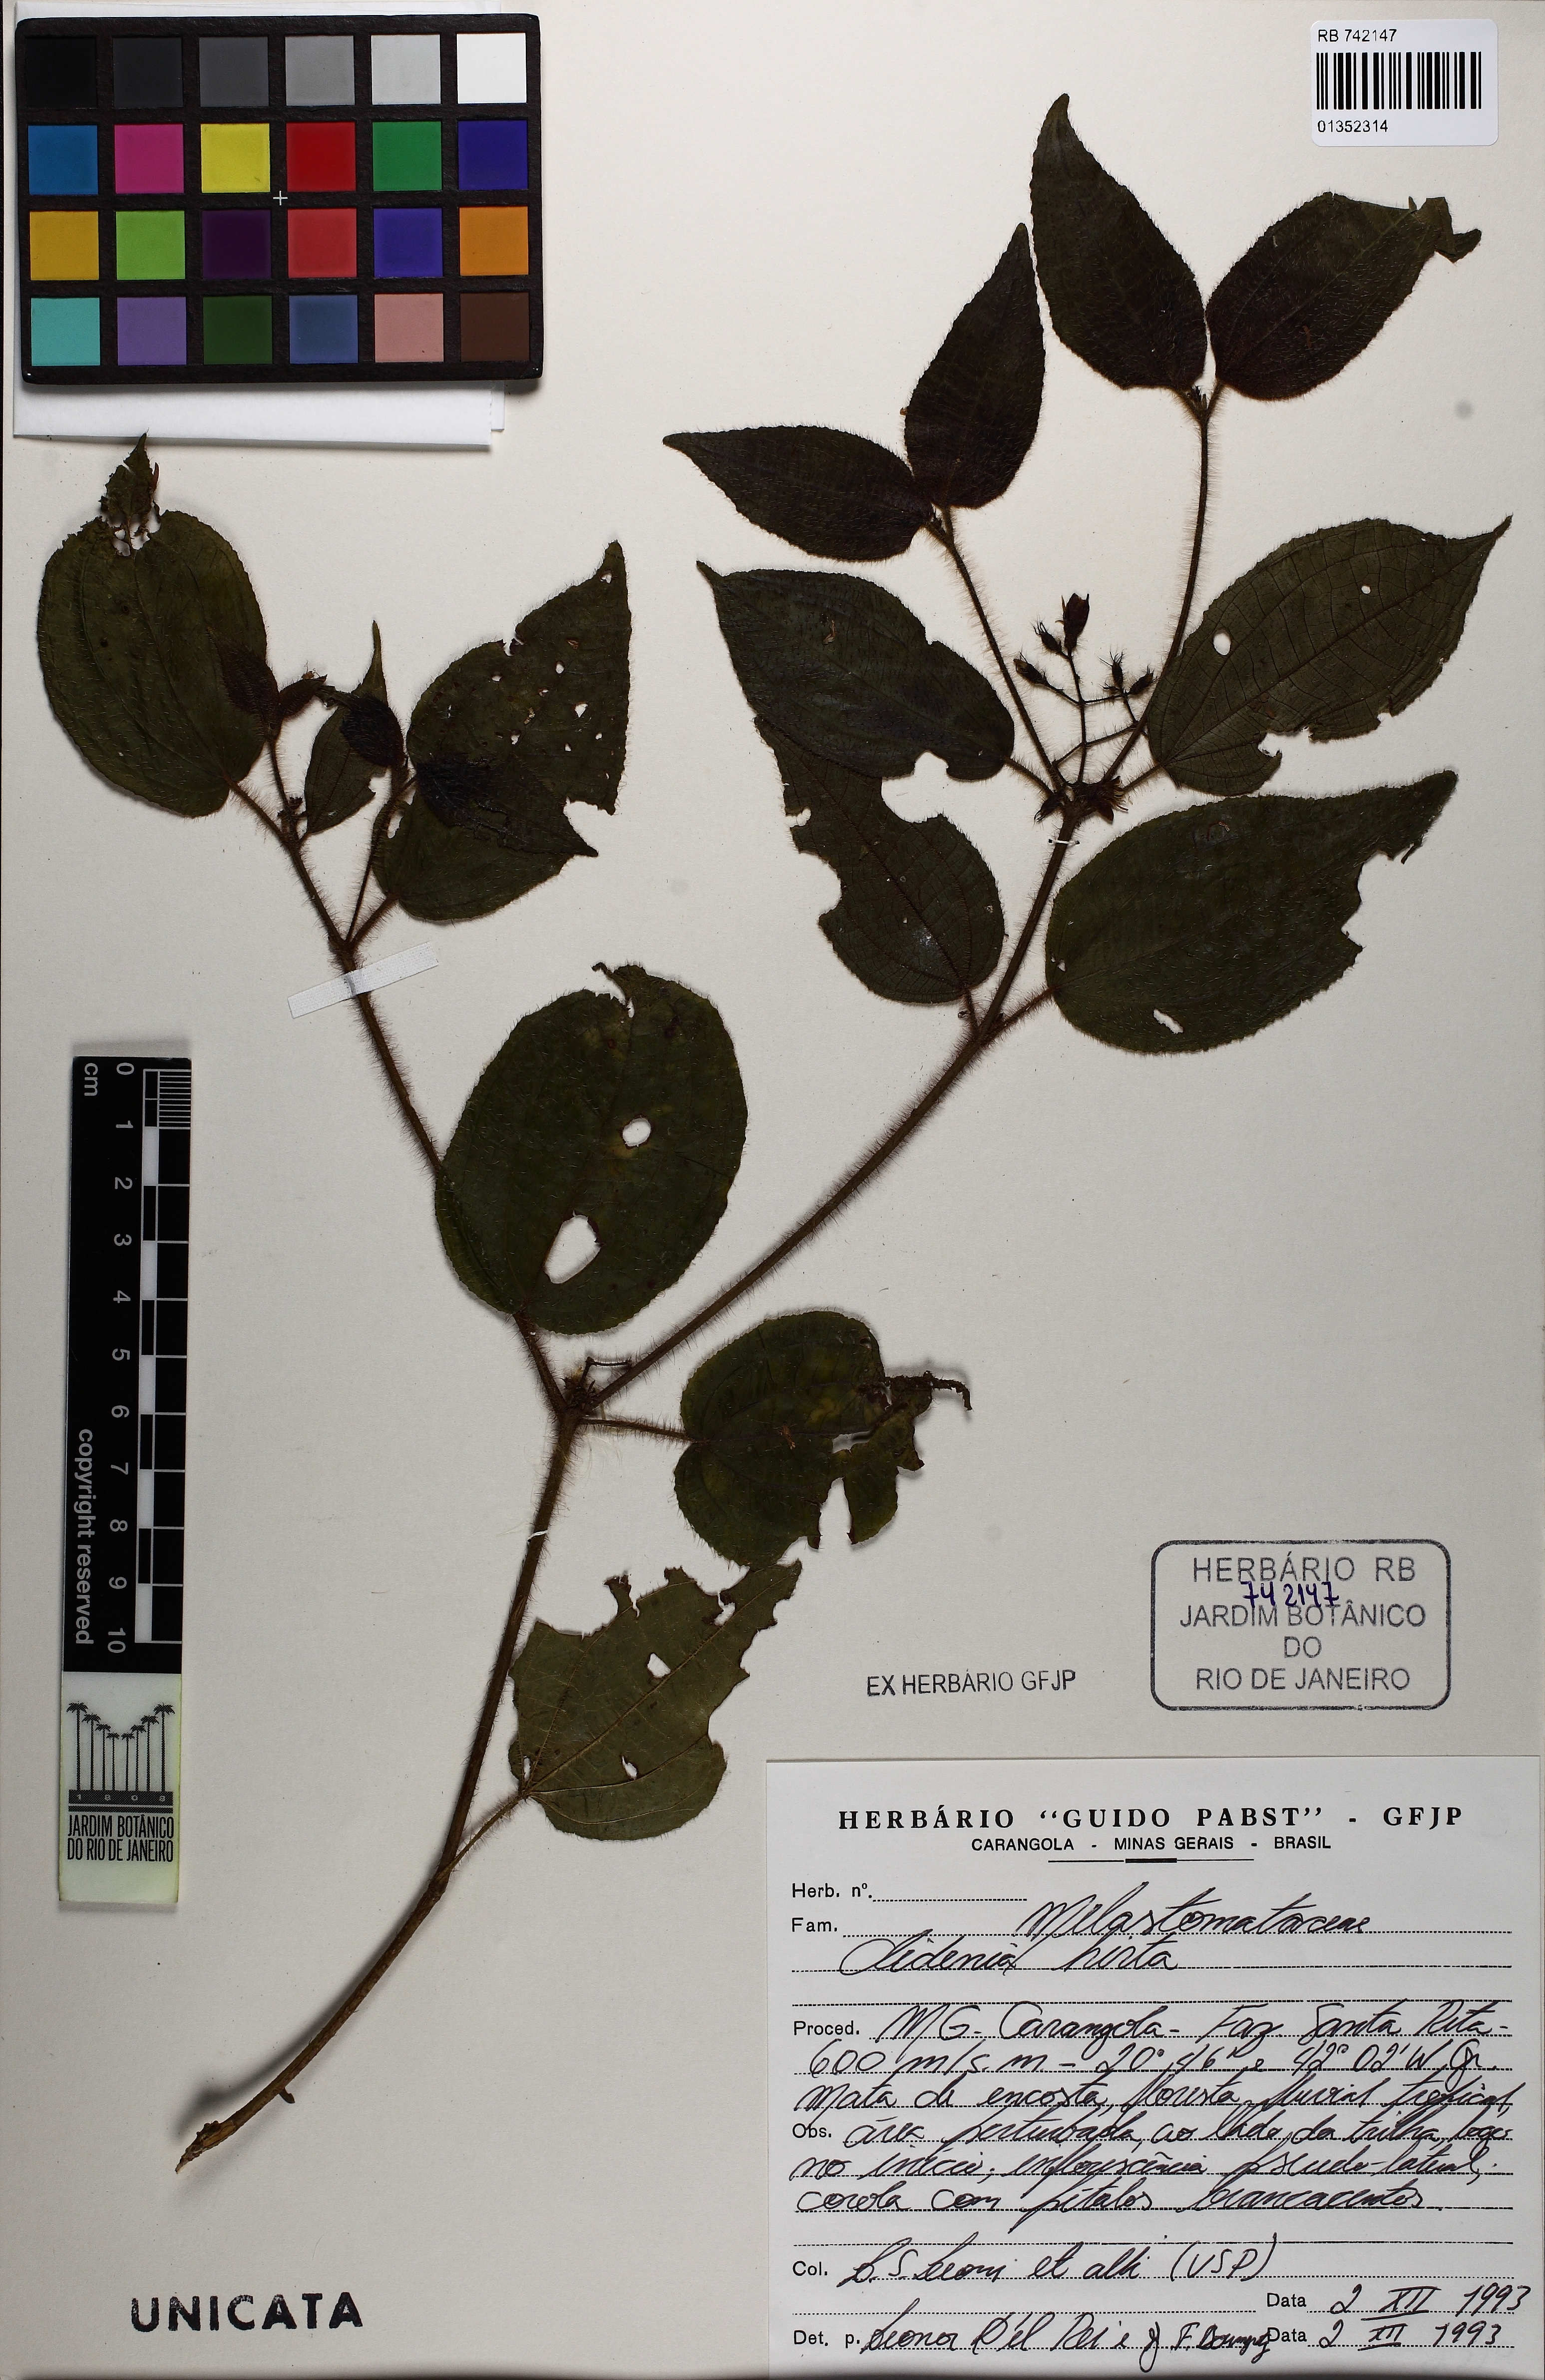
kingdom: Plantae
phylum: Tracheophyta
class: Magnoliopsida
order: Myrtales
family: Melastomataceae
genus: Miconia
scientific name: Miconia crenata
